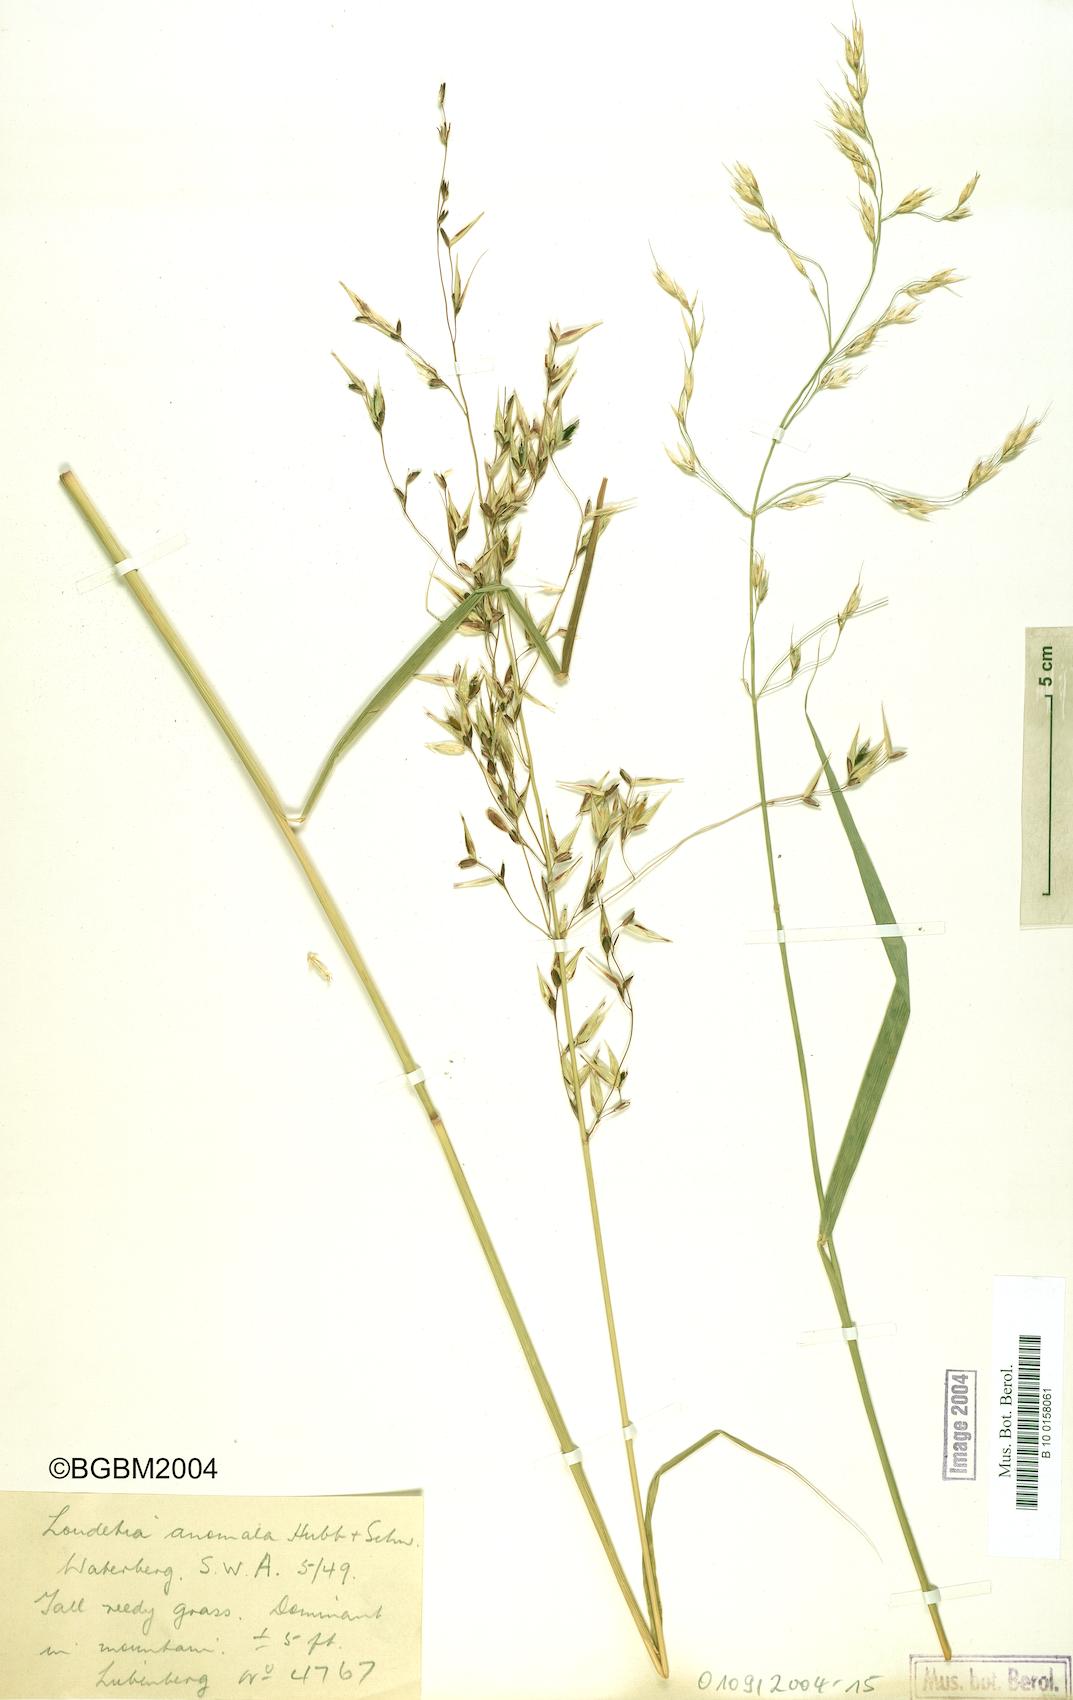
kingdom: Plantae
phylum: Tracheophyta
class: Liliopsida
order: Poales
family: Poaceae
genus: Danthoniopsis
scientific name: Danthoniopsis ramosa
